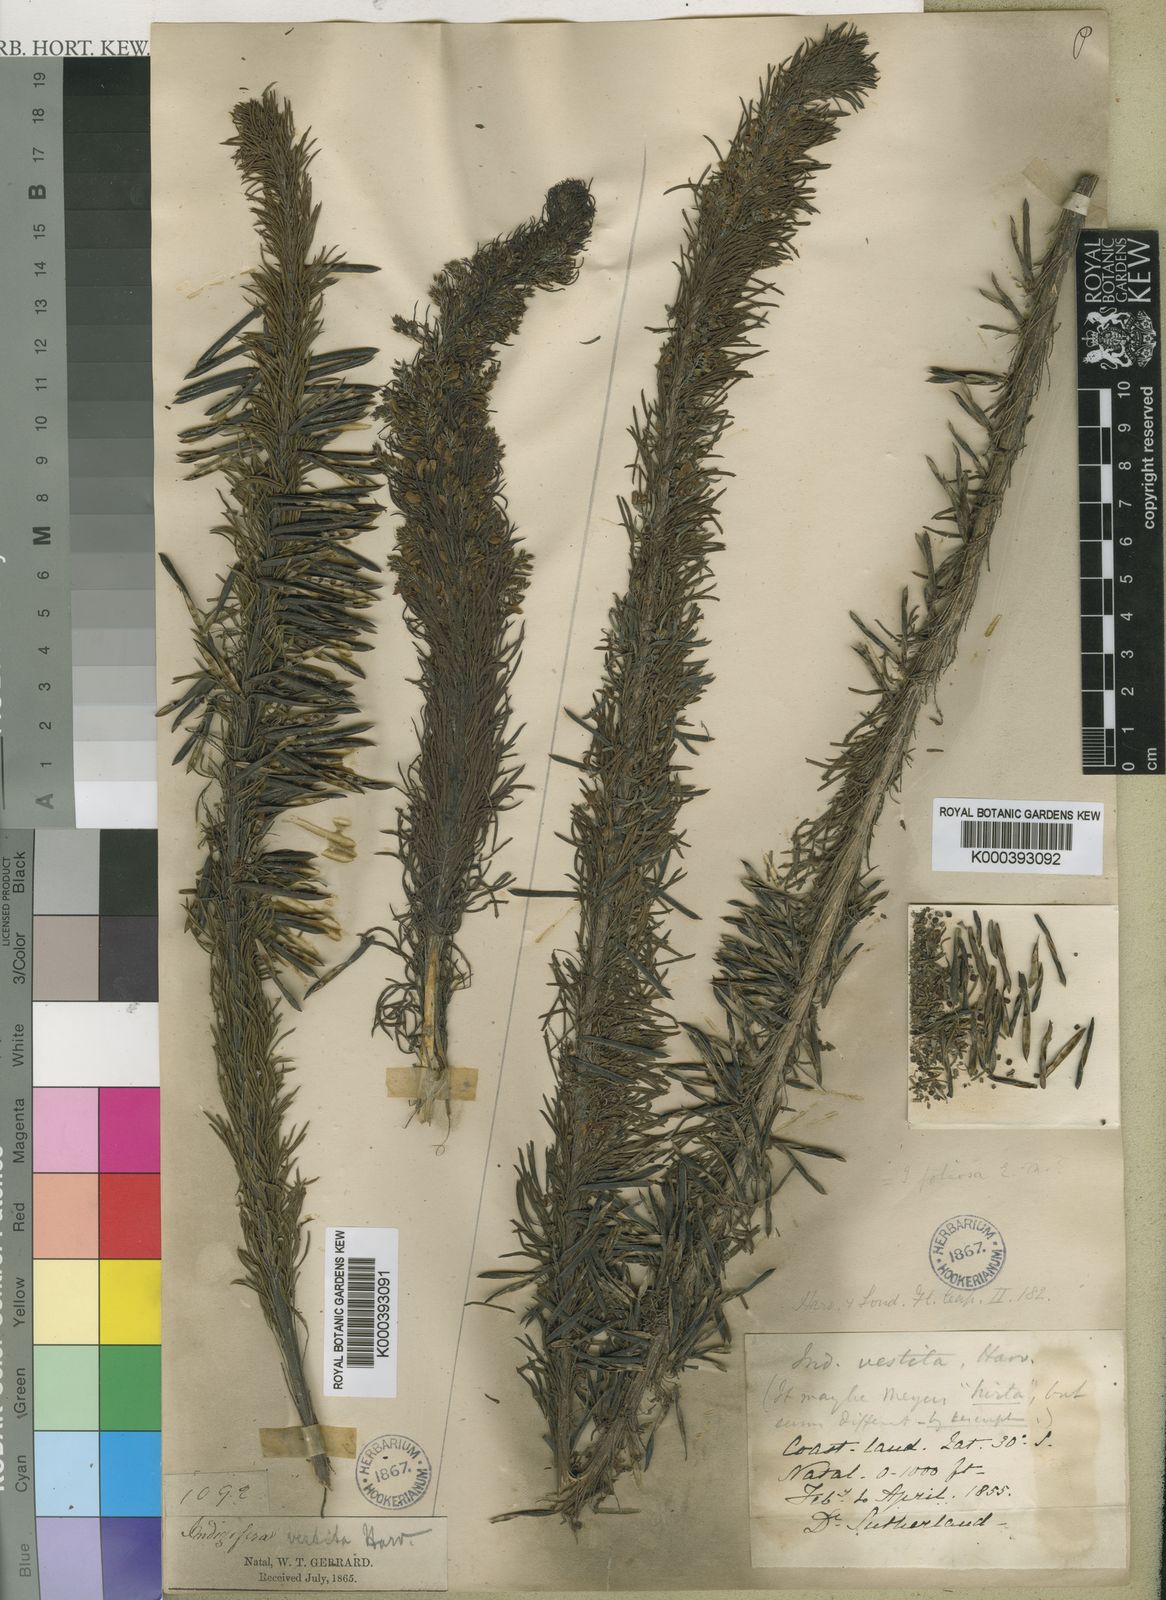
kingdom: Plantae
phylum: Tracheophyta
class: Magnoliopsida
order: Fabales
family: Fabaceae
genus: Indigofera
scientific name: Indigofera vestita
